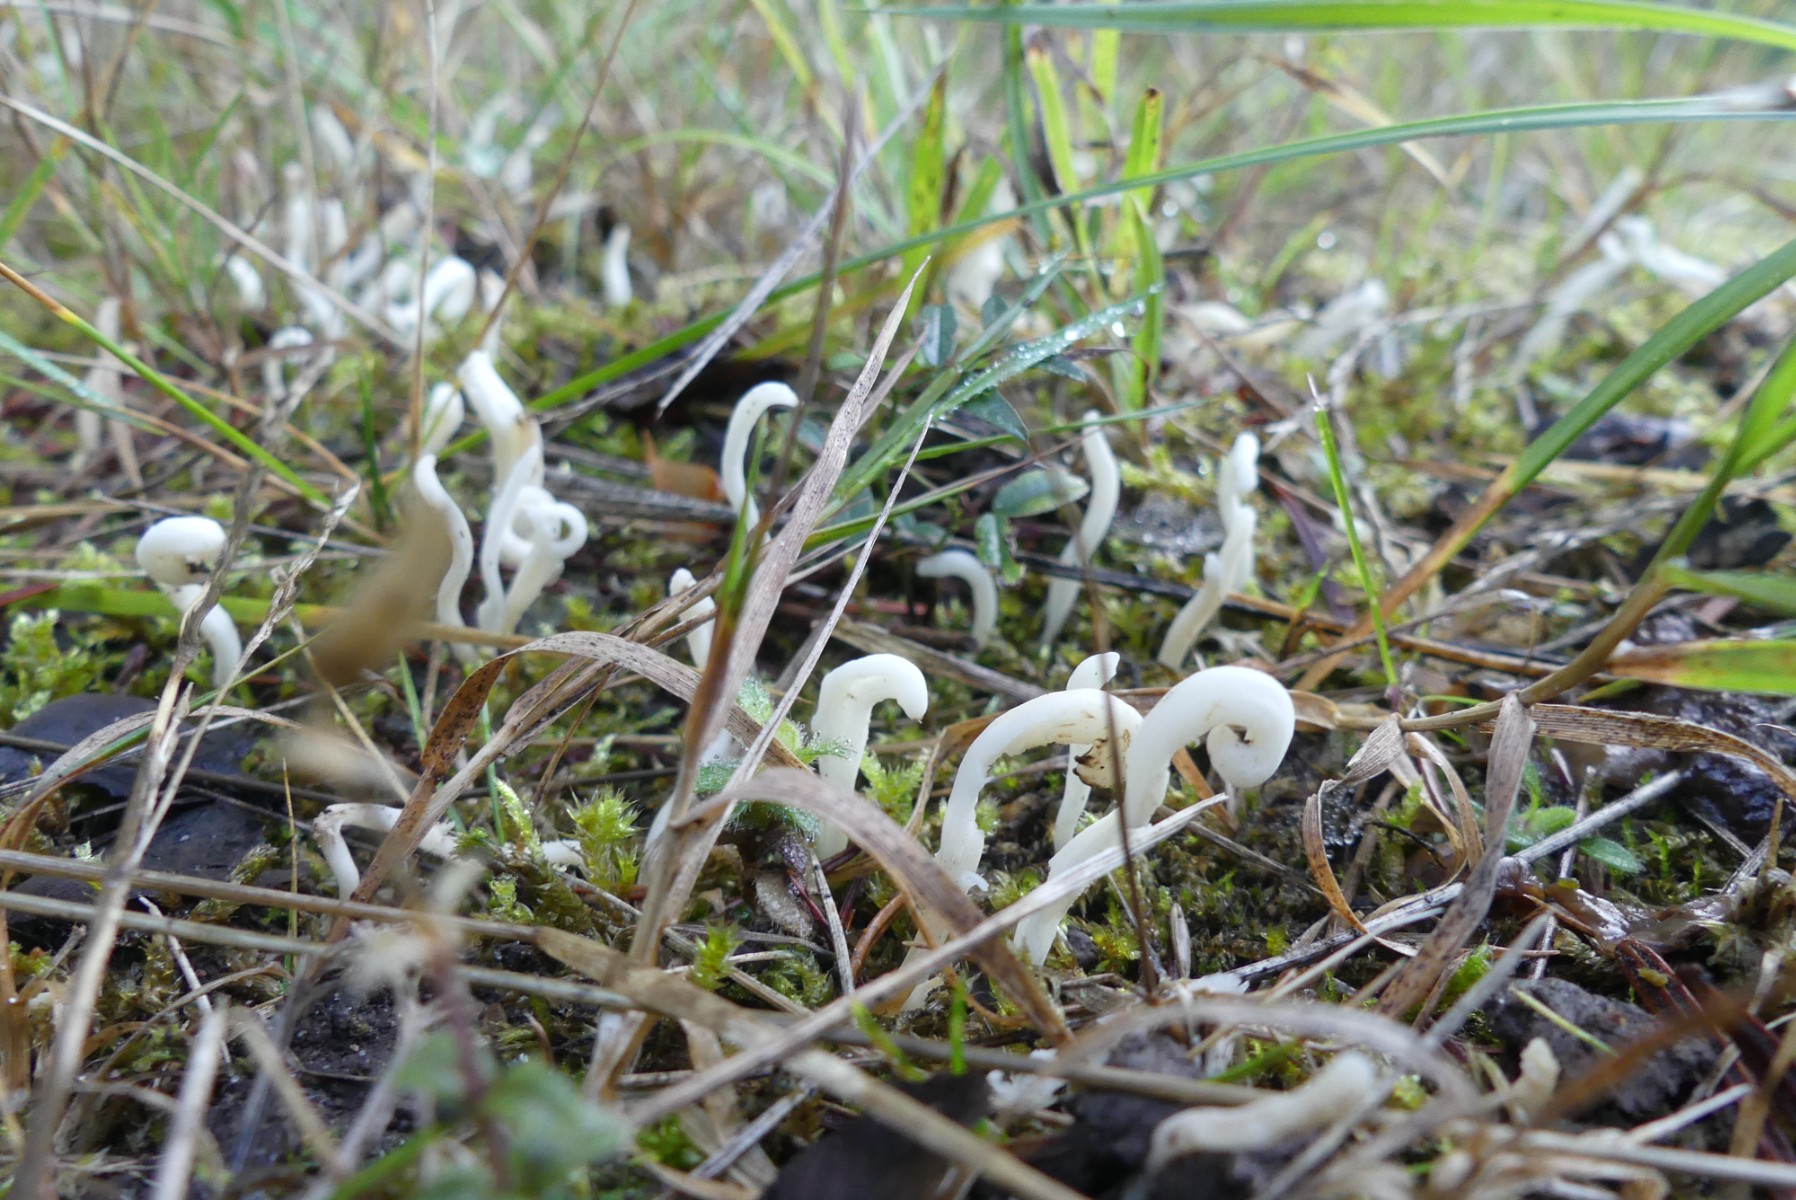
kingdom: Fungi
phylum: Basidiomycota
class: Agaricomycetes
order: Agaricales
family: Clavariaceae
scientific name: Clavariaceae
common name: køllesvampfamilien
